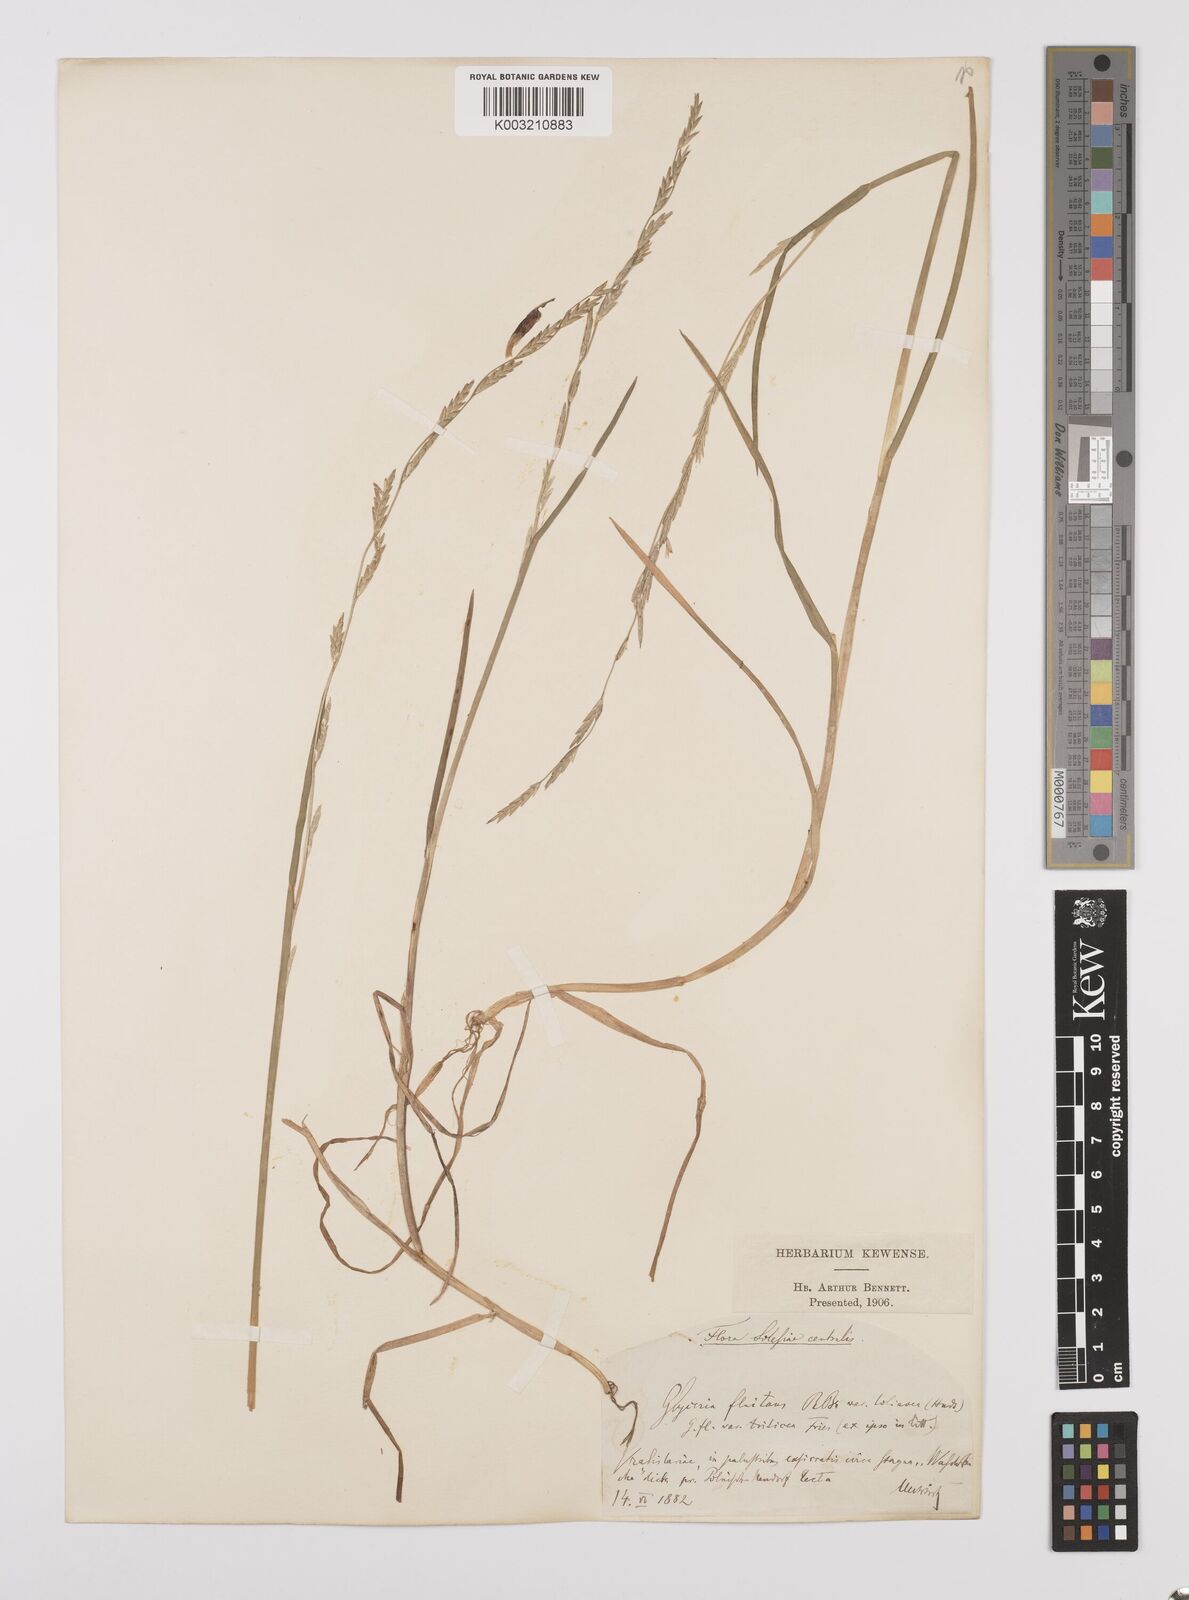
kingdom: Plantae
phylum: Tracheophyta
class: Liliopsida
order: Poales
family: Poaceae
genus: Glyceria
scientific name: Glyceria fluitans
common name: Floating sweet-grass
